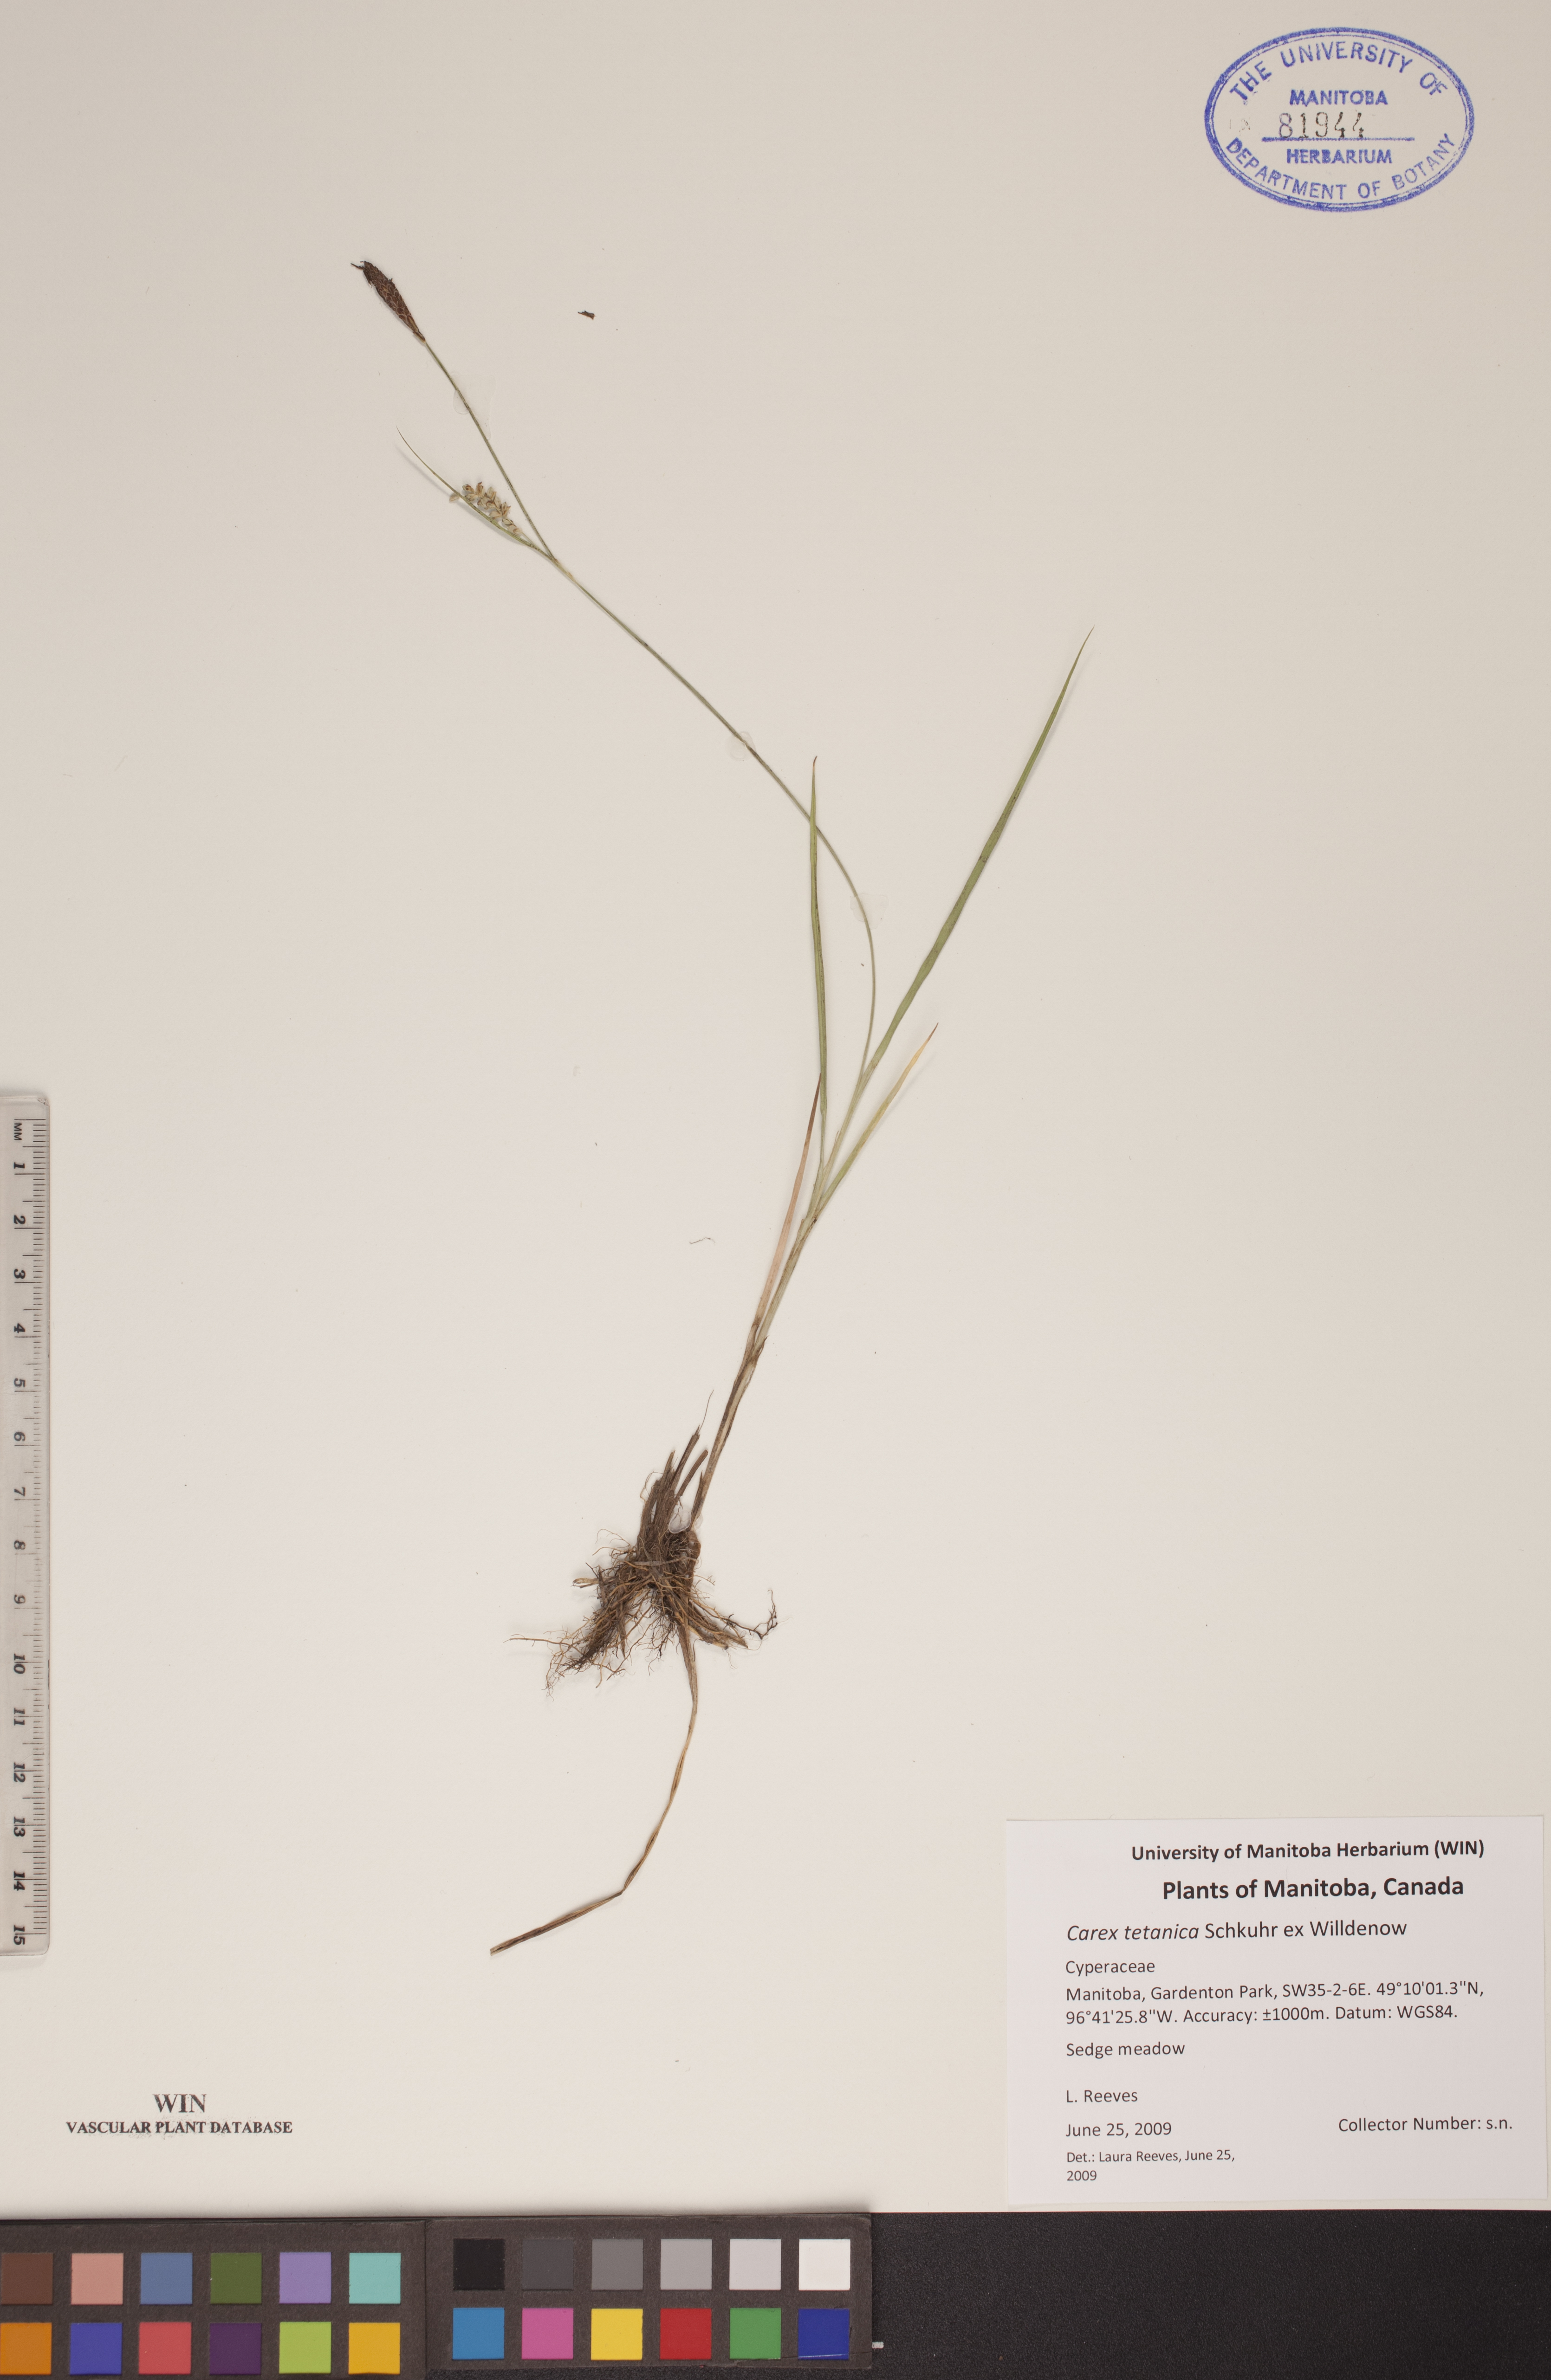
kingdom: Plantae
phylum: Tracheophyta
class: Liliopsida
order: Poales
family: Cyperaceae
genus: Carex
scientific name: Carex tetanica
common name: Rigid sedge
